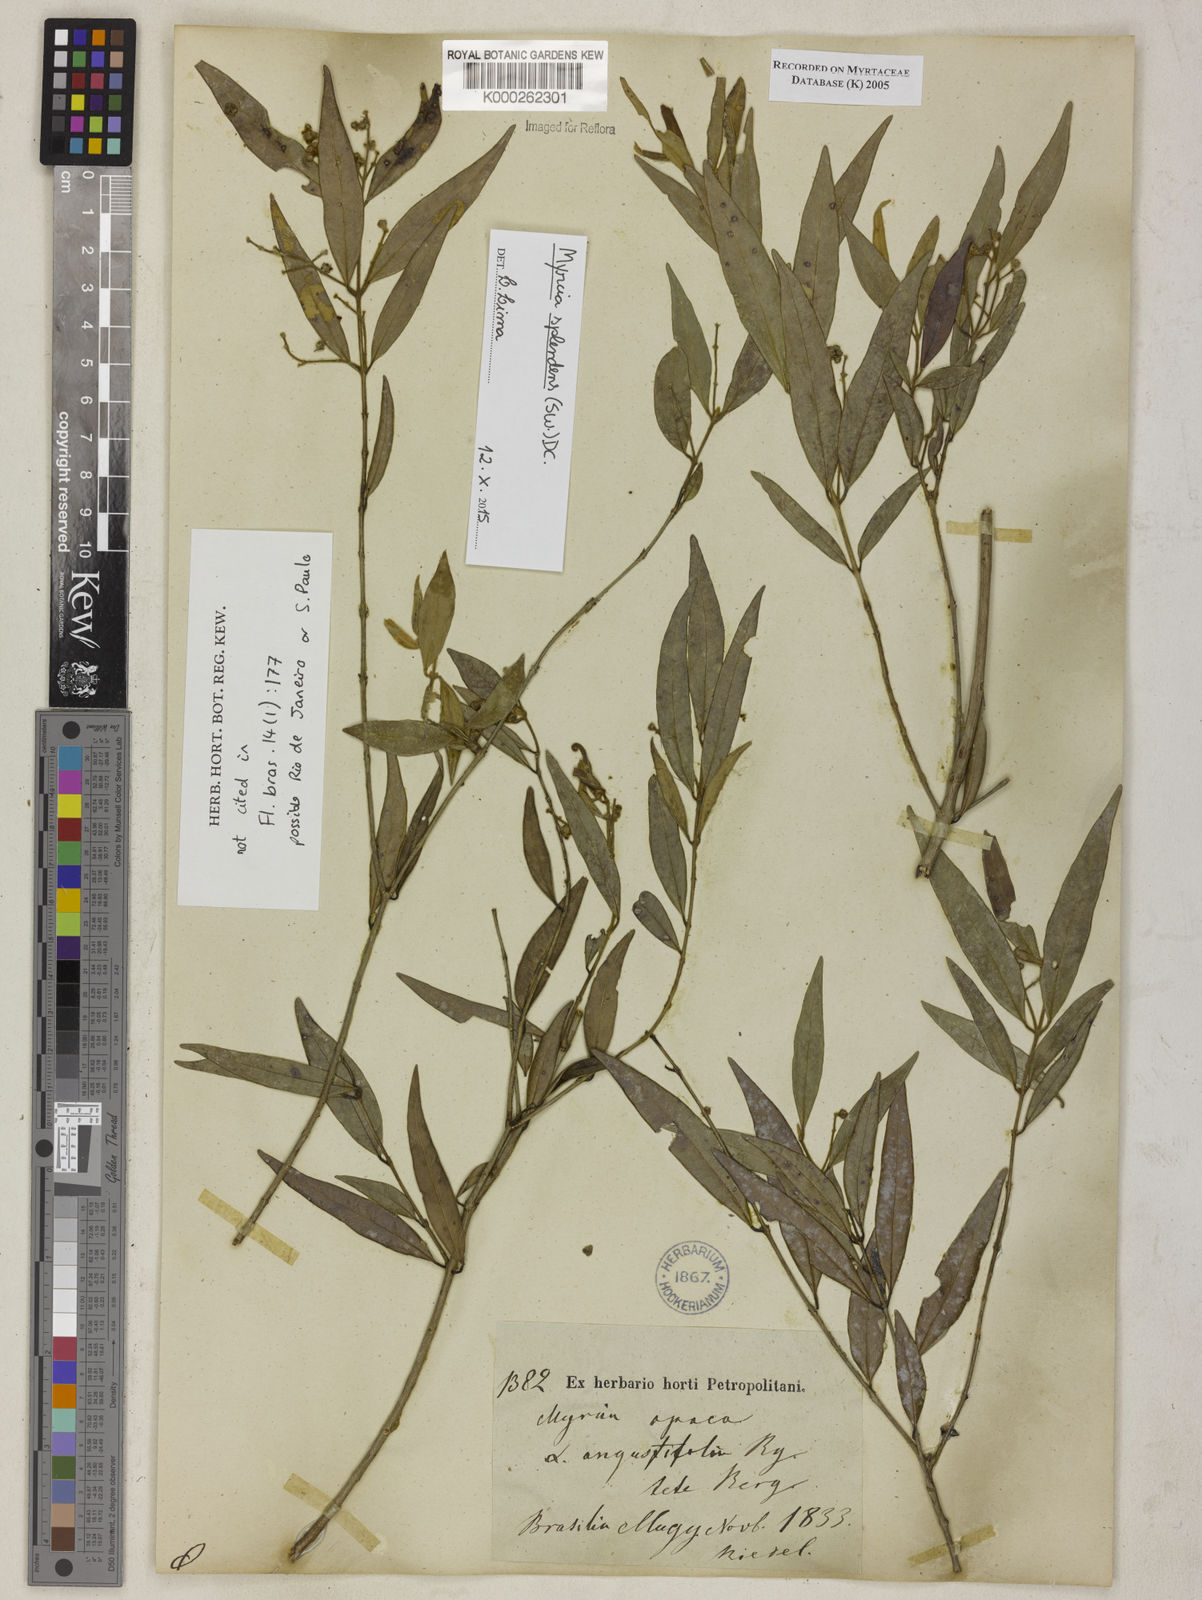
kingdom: Plantae
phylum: Tracheophyta
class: Magnoliopsida
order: Myrtales
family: Myrtaceae
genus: Myrcia
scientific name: Myrcia splendens
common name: Surinam cherry
